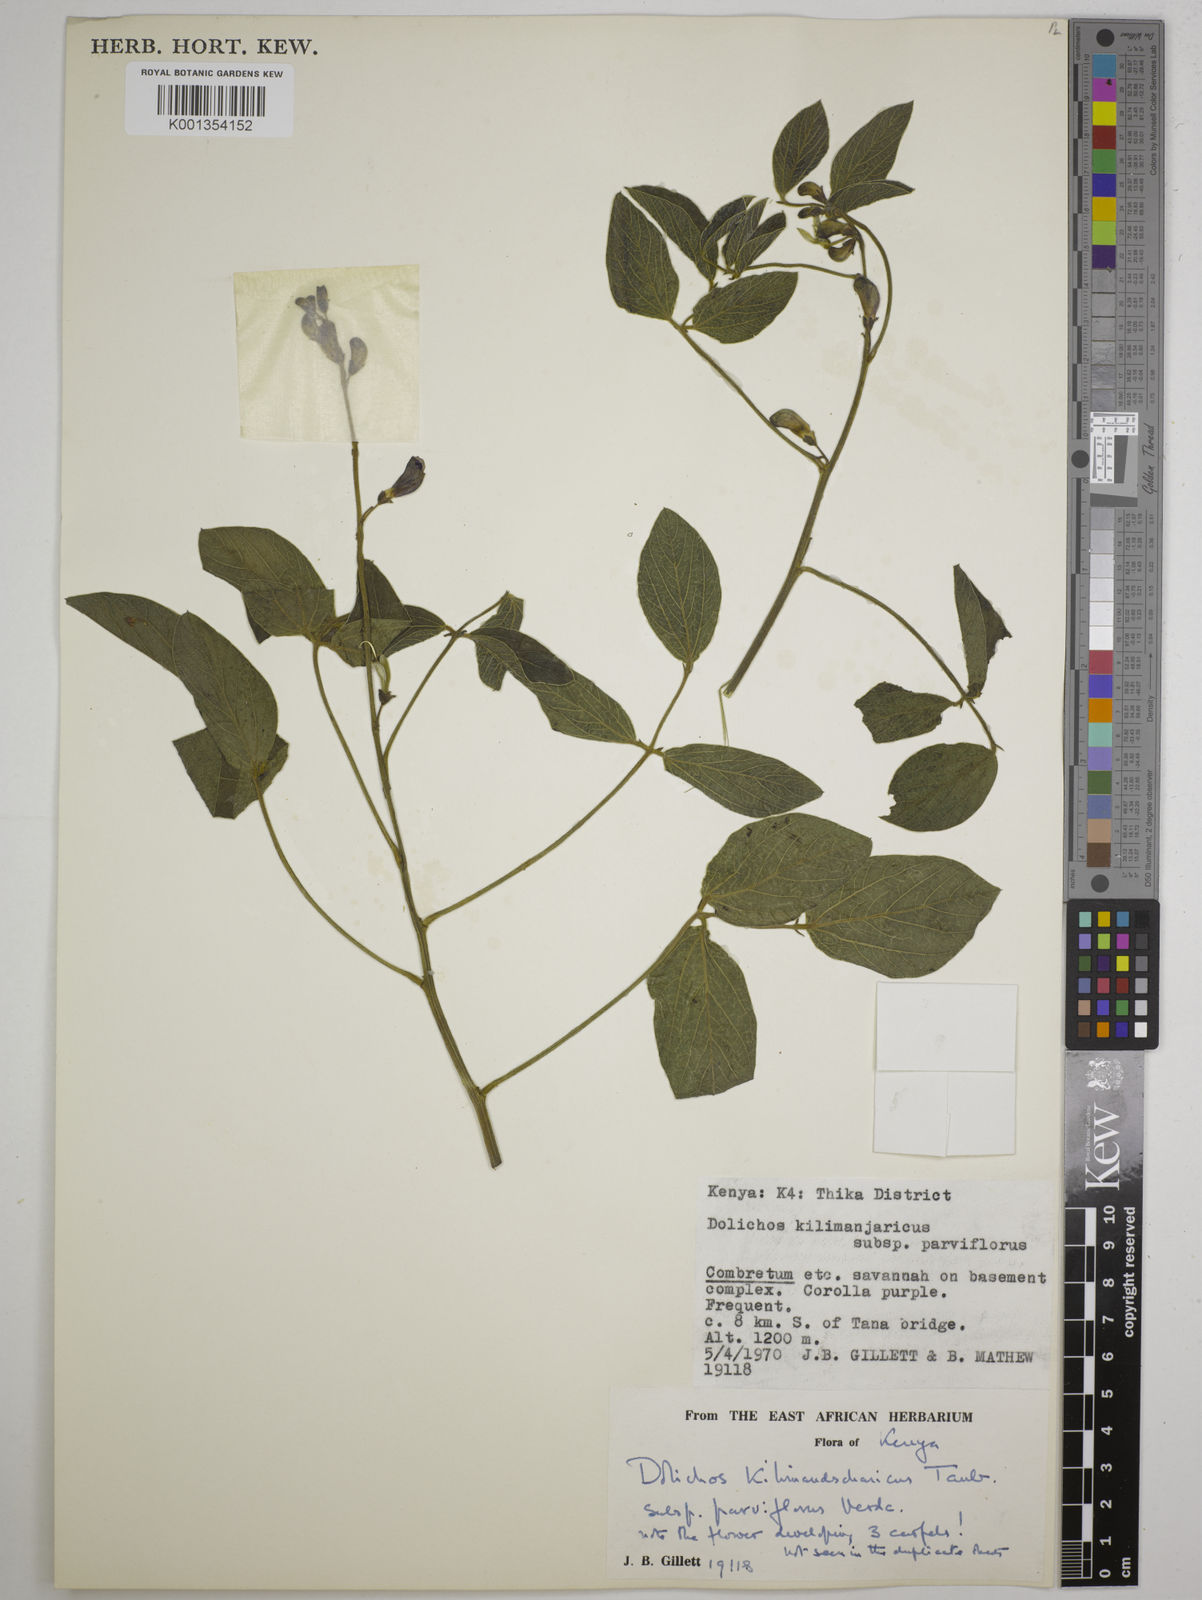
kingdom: Plantae
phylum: Tracheophyta
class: Magnoliopsida
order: Fabales
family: Fabaceae
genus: Dolichos
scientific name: Dolichos
